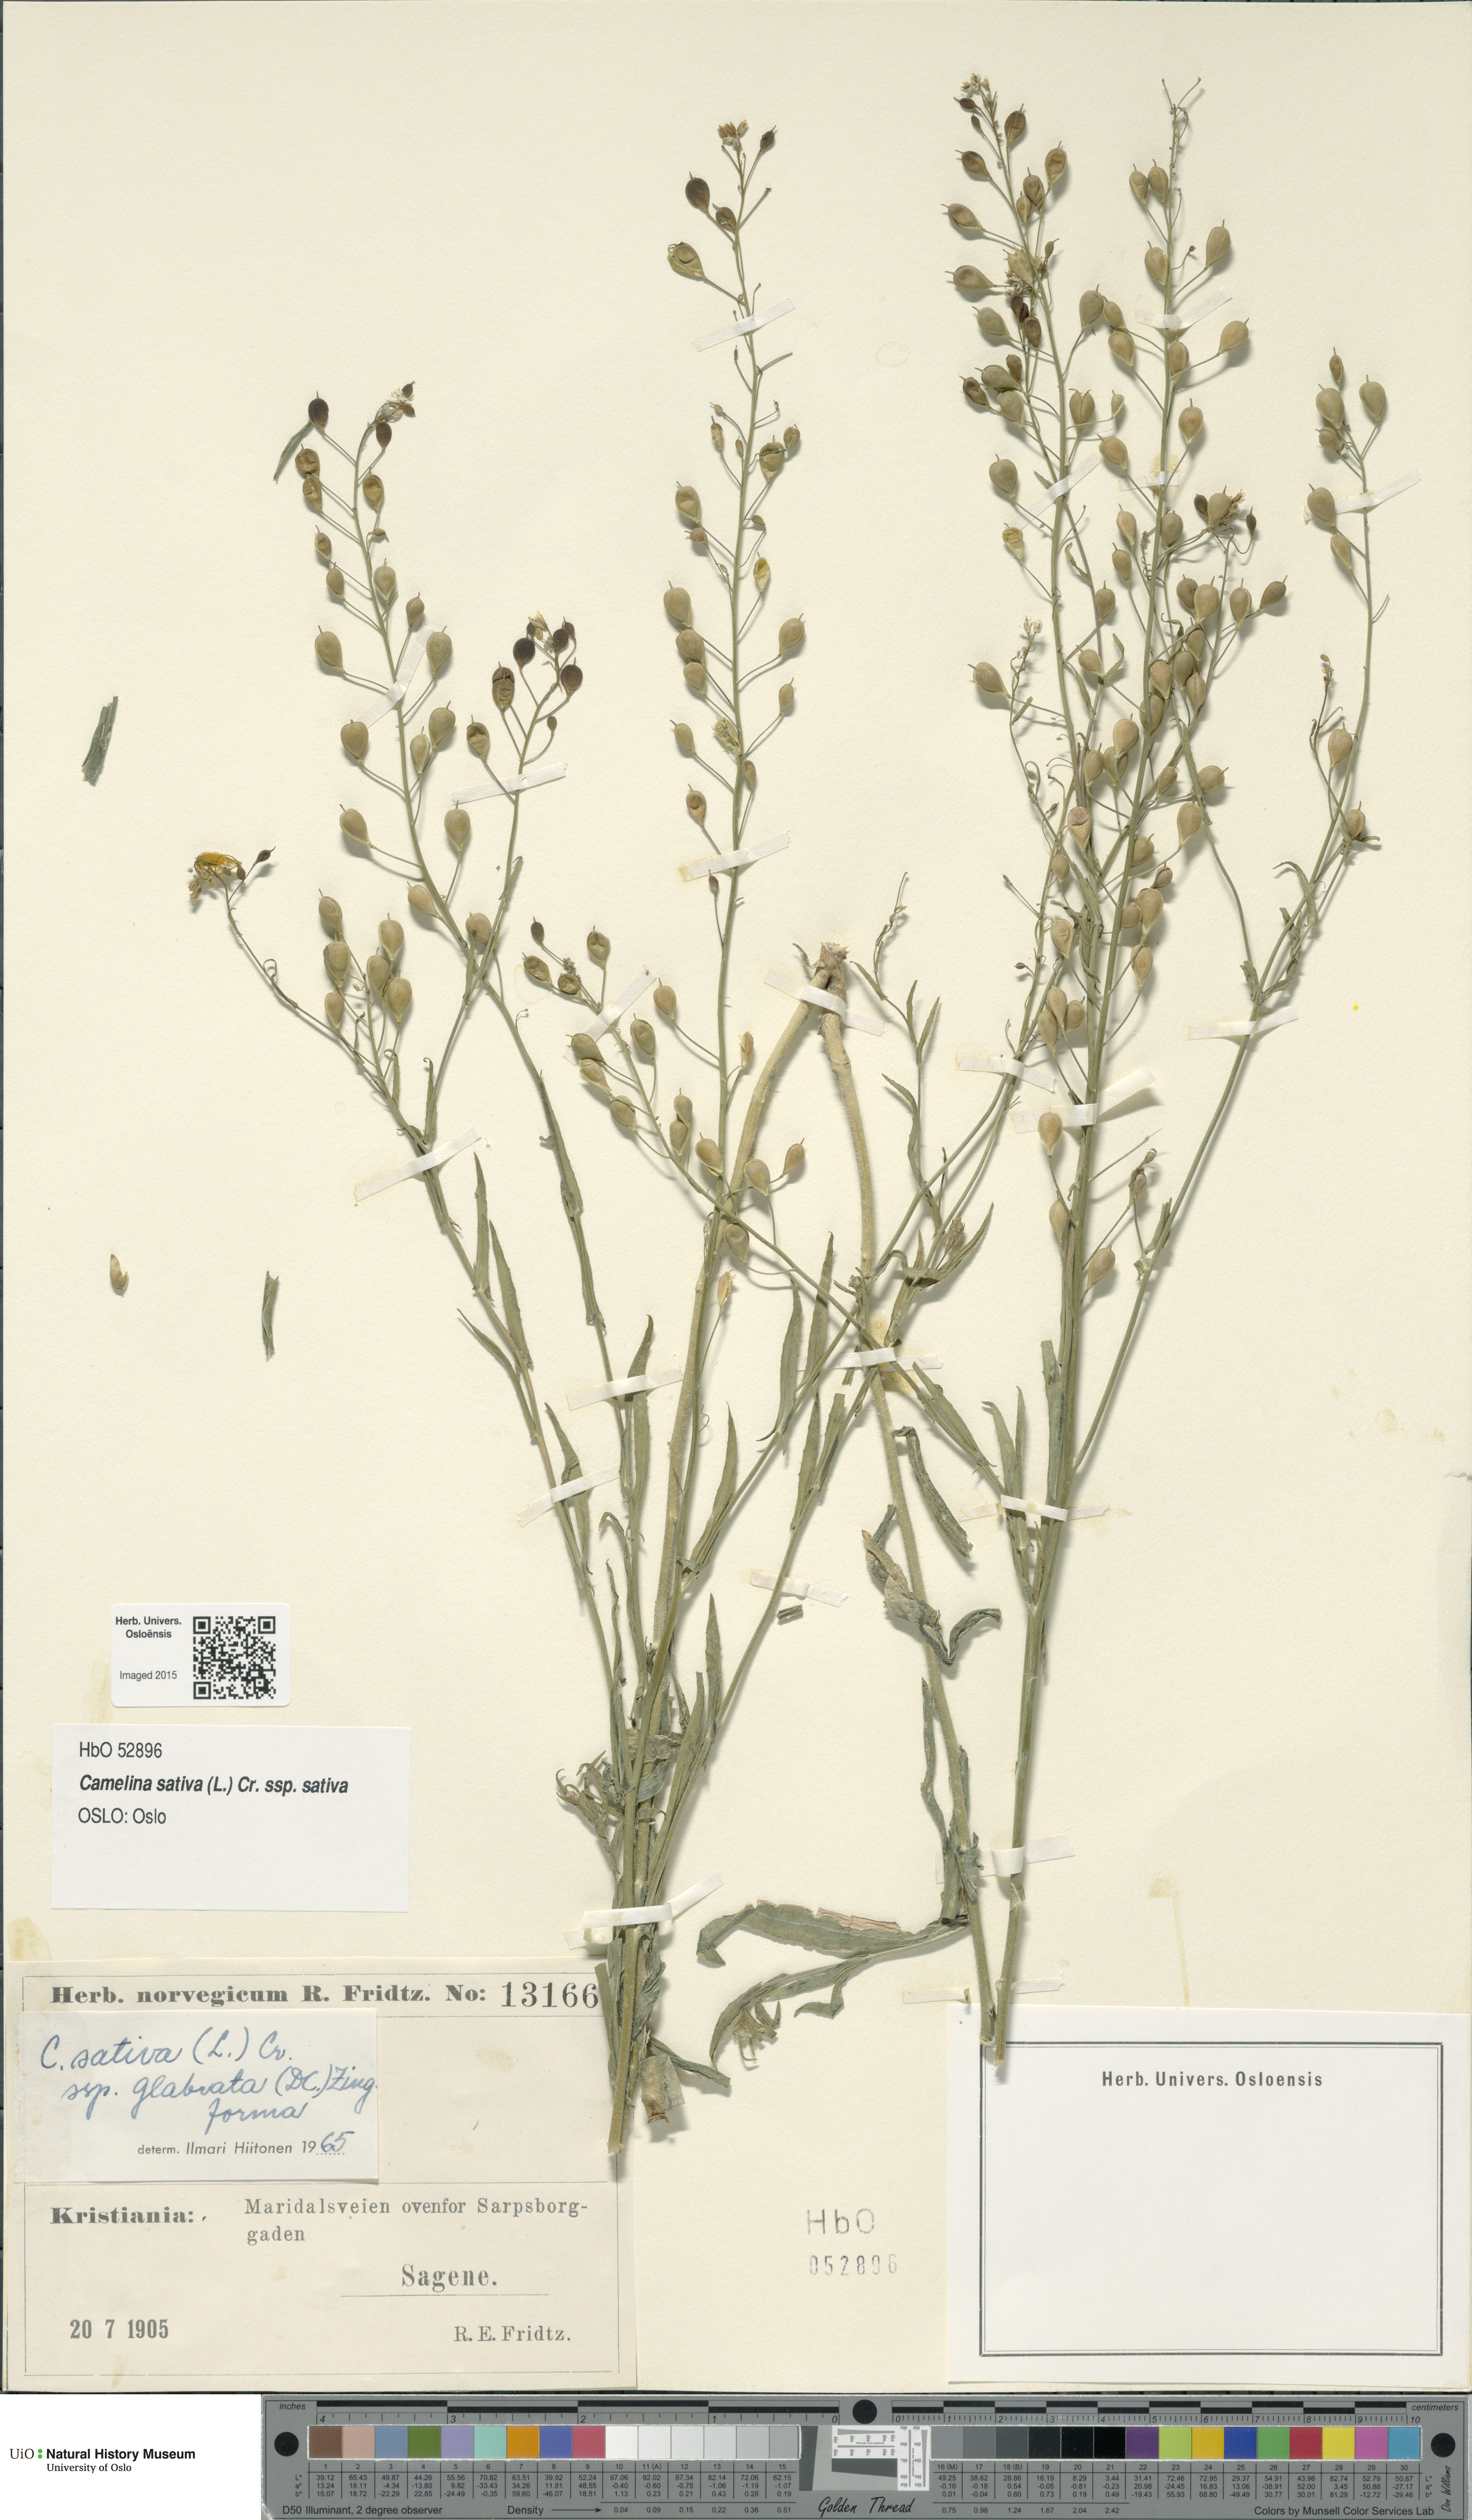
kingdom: Plantae
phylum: Tracheophyta
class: Magnoliopsida
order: Brassicales
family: Brassicaceae
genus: Camelina
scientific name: Camelina sativa
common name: Gold-of-pleasure
